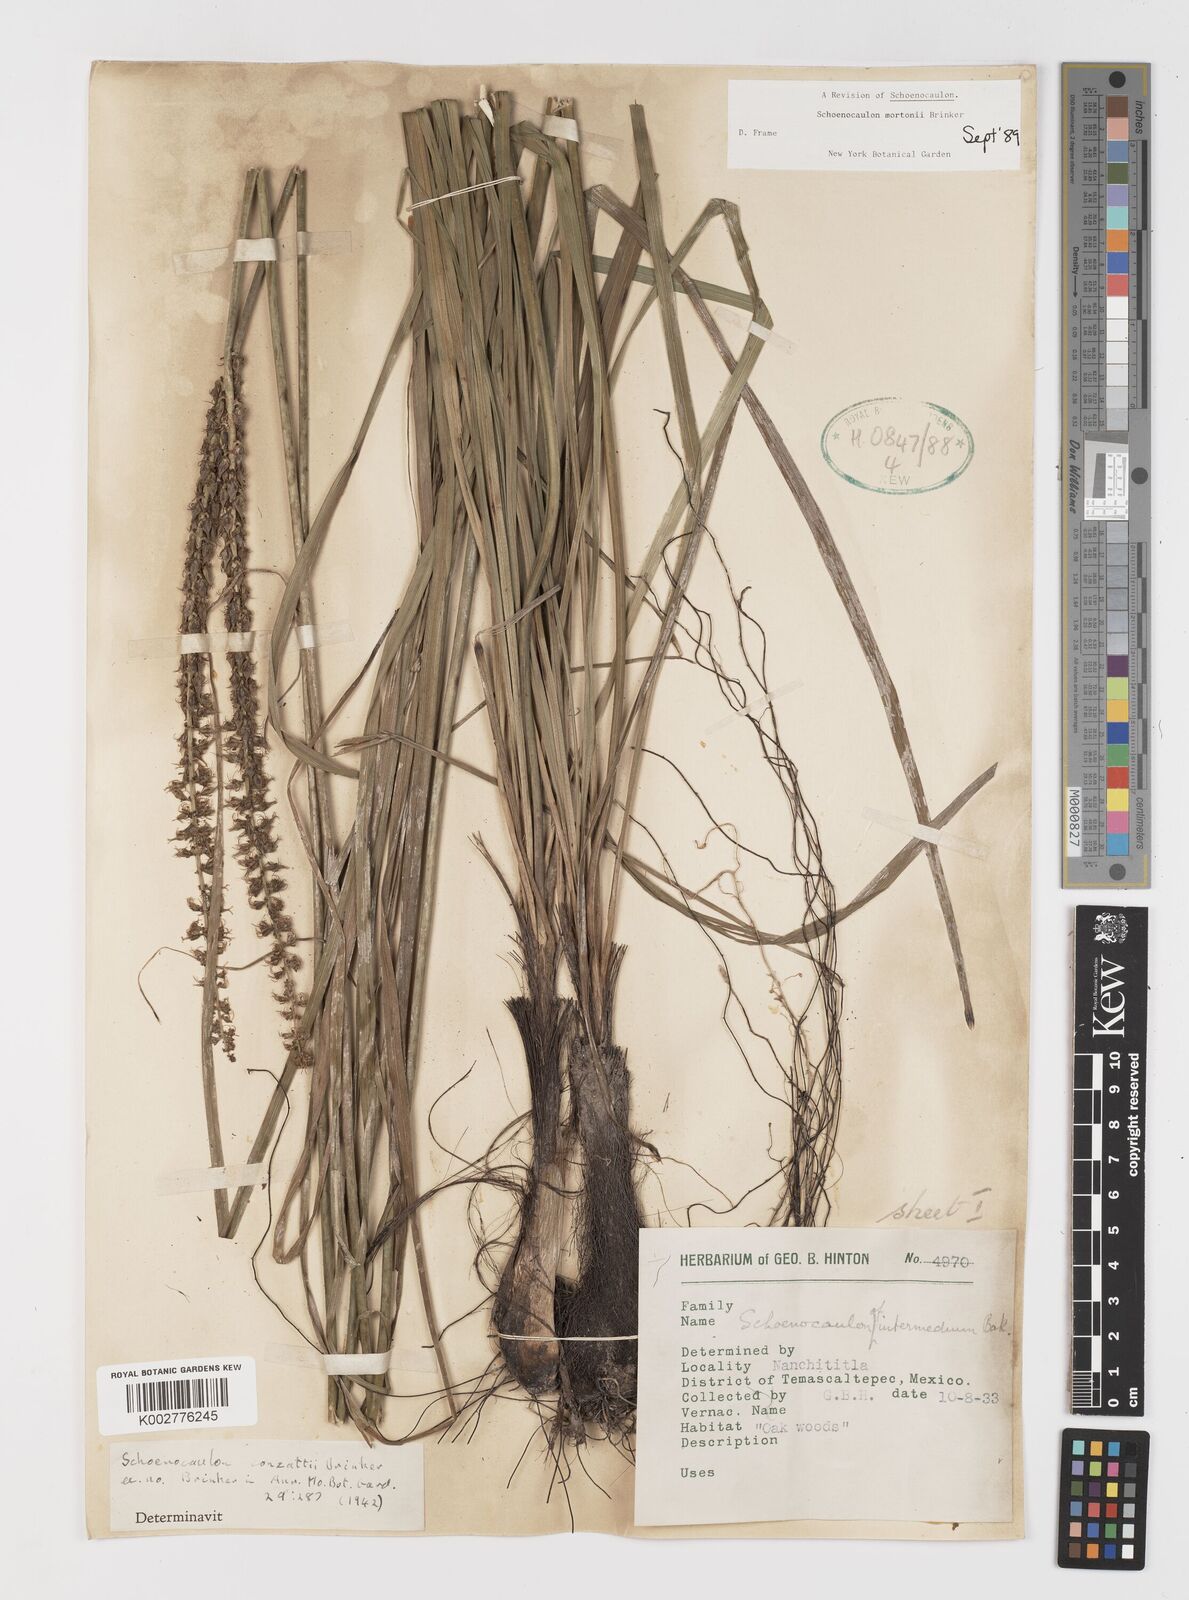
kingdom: Plantae
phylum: Tracheophyta
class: Liliopsida
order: Liliales
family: Melanthiaceae
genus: Schoenocaulon
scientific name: Schoenocaulon mortonii
